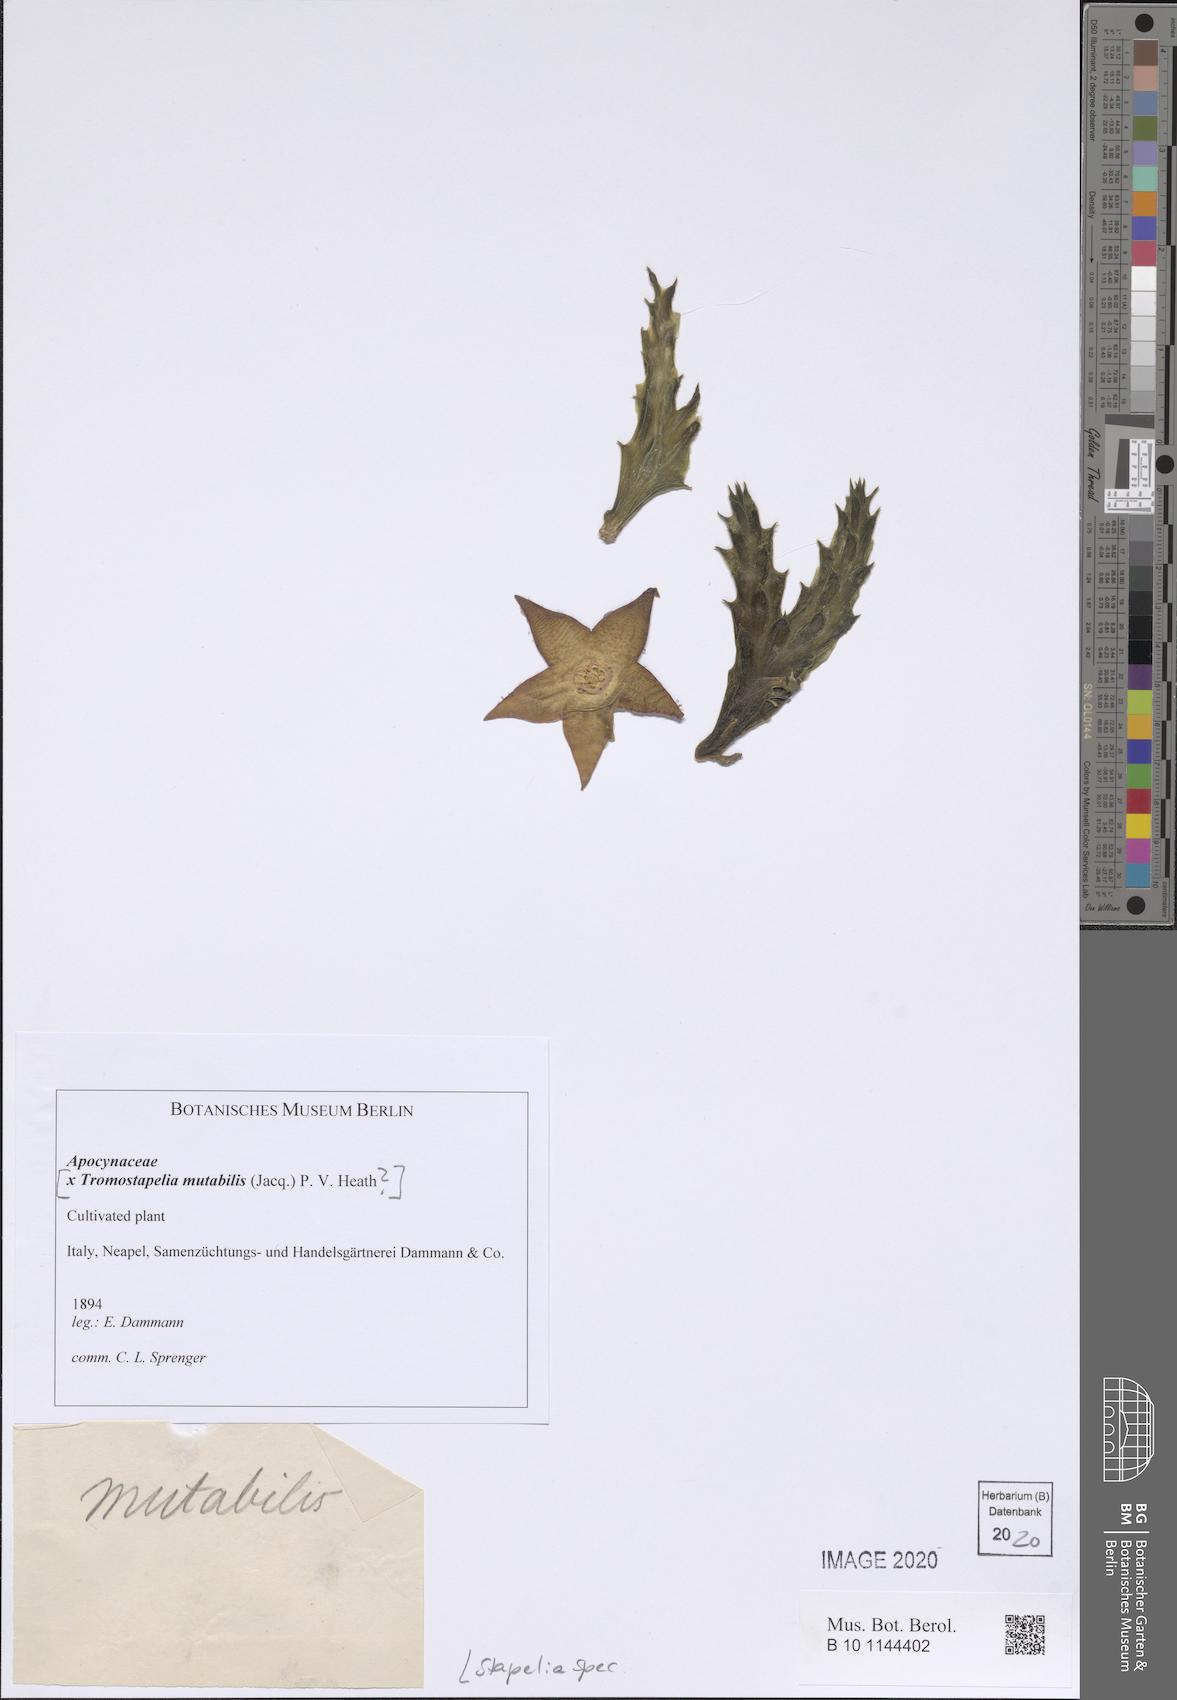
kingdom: Plantae
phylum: Tracheophyta
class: Magnoliopsida
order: Gentianales
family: Apocynaceae
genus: Stapelia
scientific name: Stapelia
